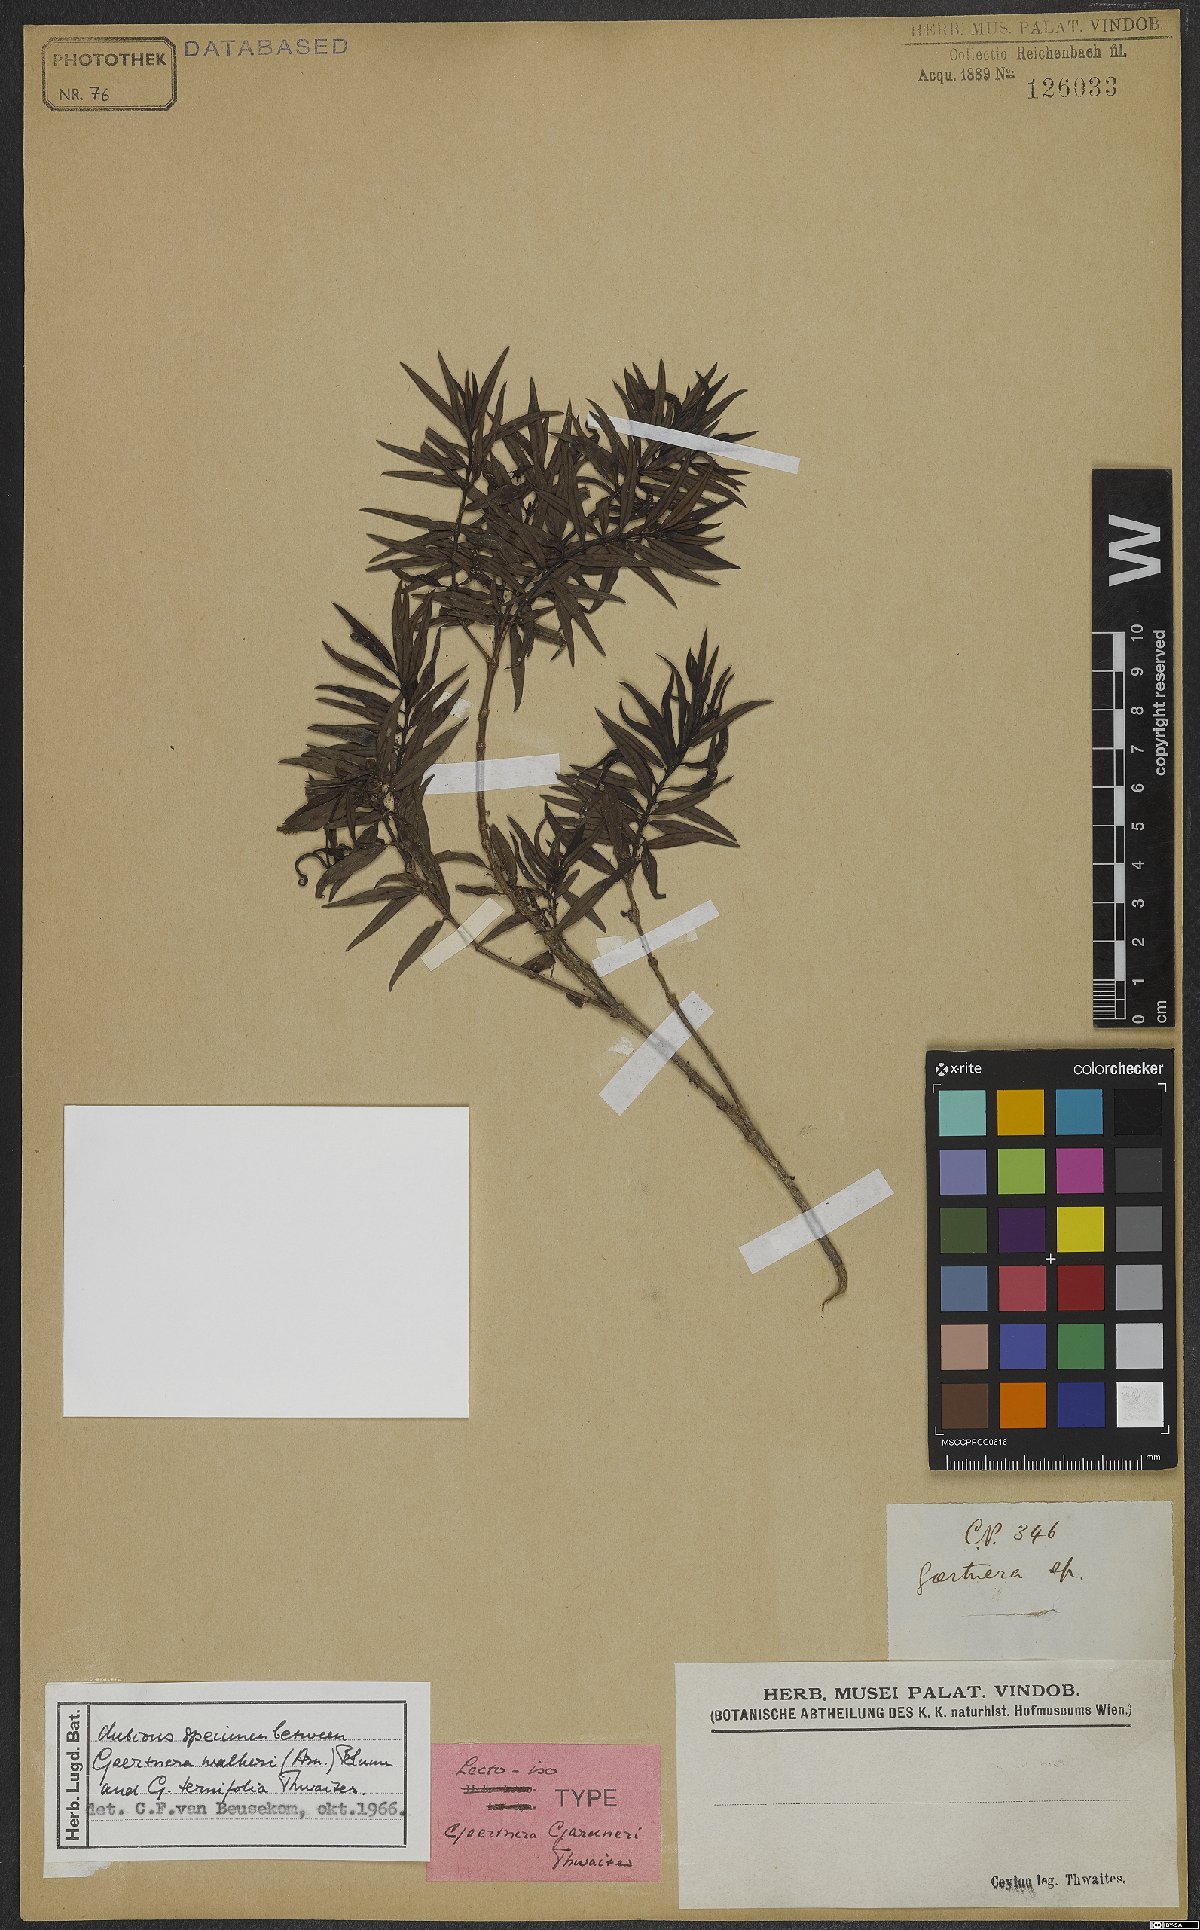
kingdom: Plantae
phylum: Tracheophyta
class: Magnoliopsida
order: Gentianales
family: Rubiaceae
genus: Gaertnera
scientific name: Gaertnera gardneri
